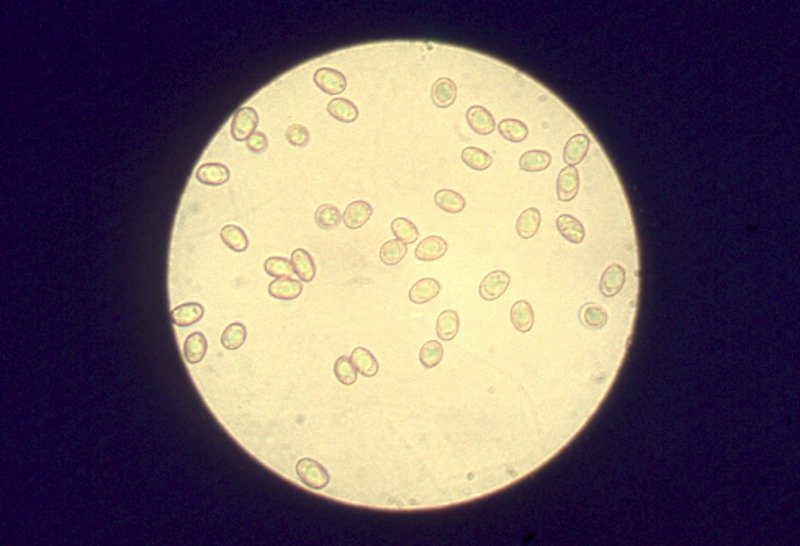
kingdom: Fungi
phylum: Basidiomycota
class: Agaricomycetes
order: Boletales
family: Paxillaceae
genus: Paxillus
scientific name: Paxillus involutus
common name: Brown roll rim
